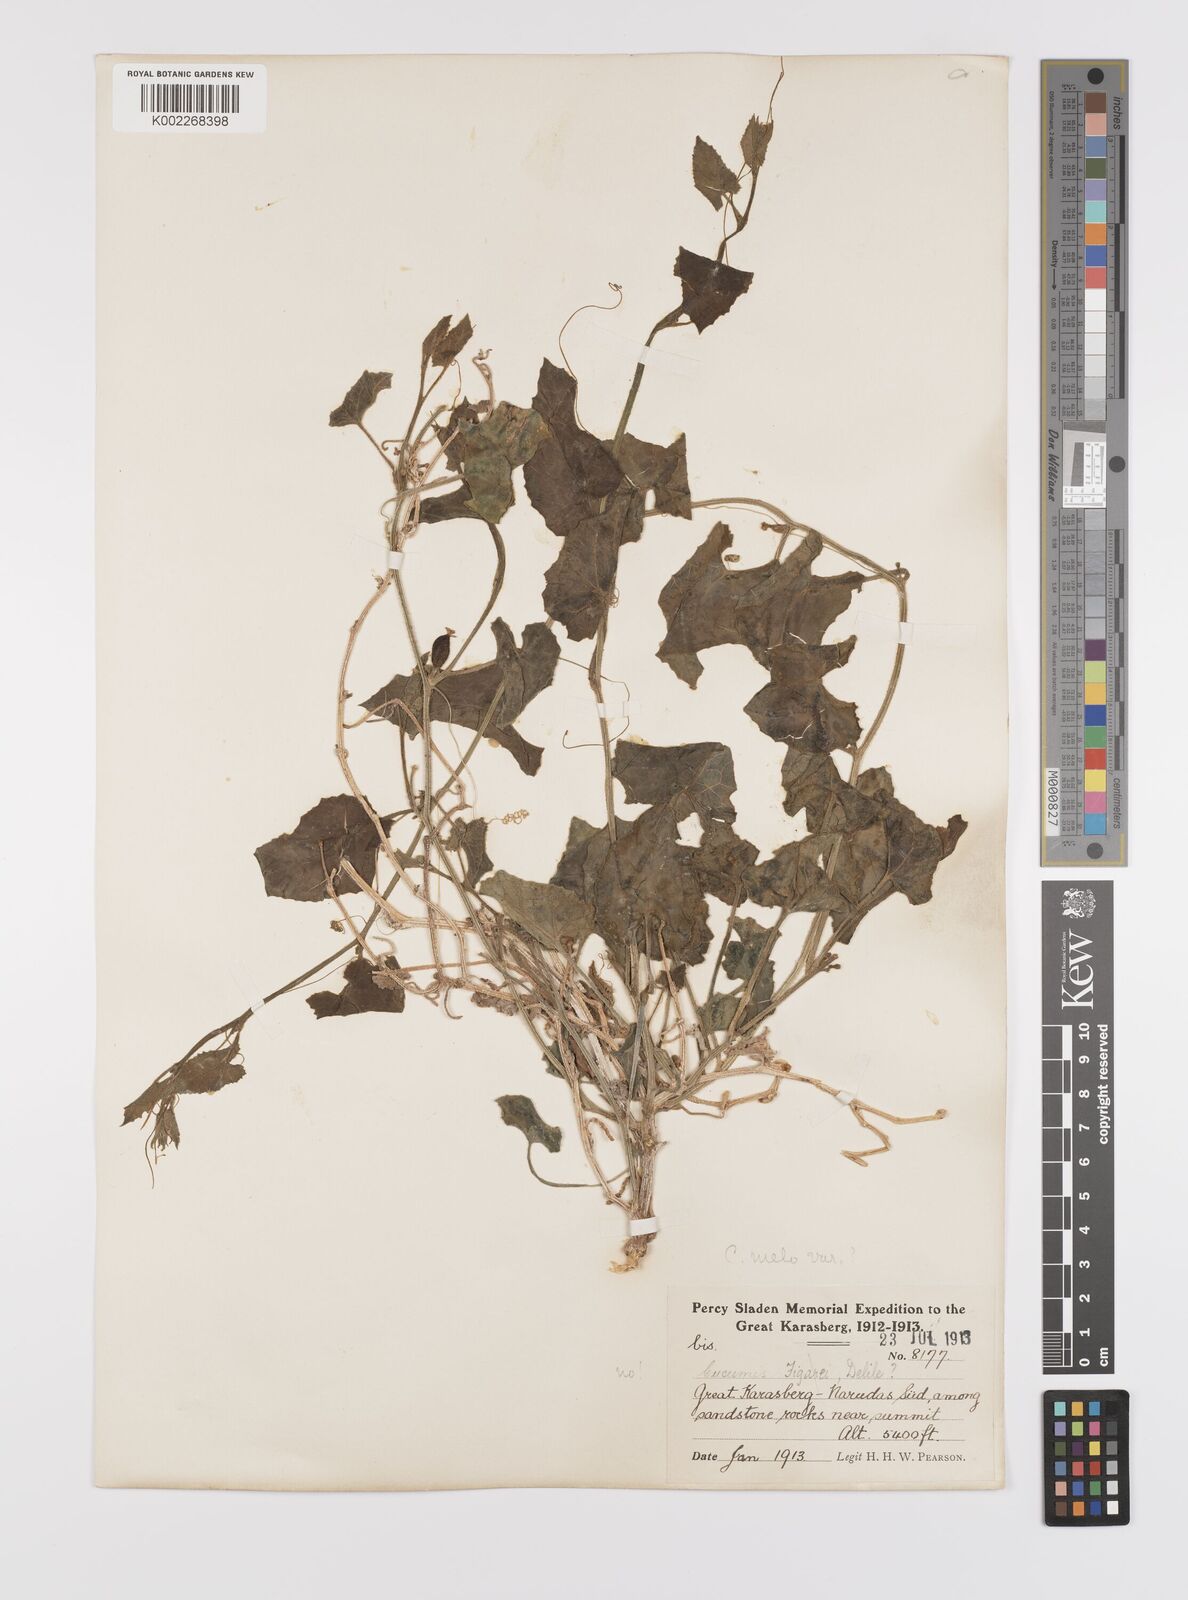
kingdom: Plantae
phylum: Tracheophyta
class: Magnoliopsida
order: Cucurbitales
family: Cucurbitaceae
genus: Cucumis
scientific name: Cucumis melo
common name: Melon
